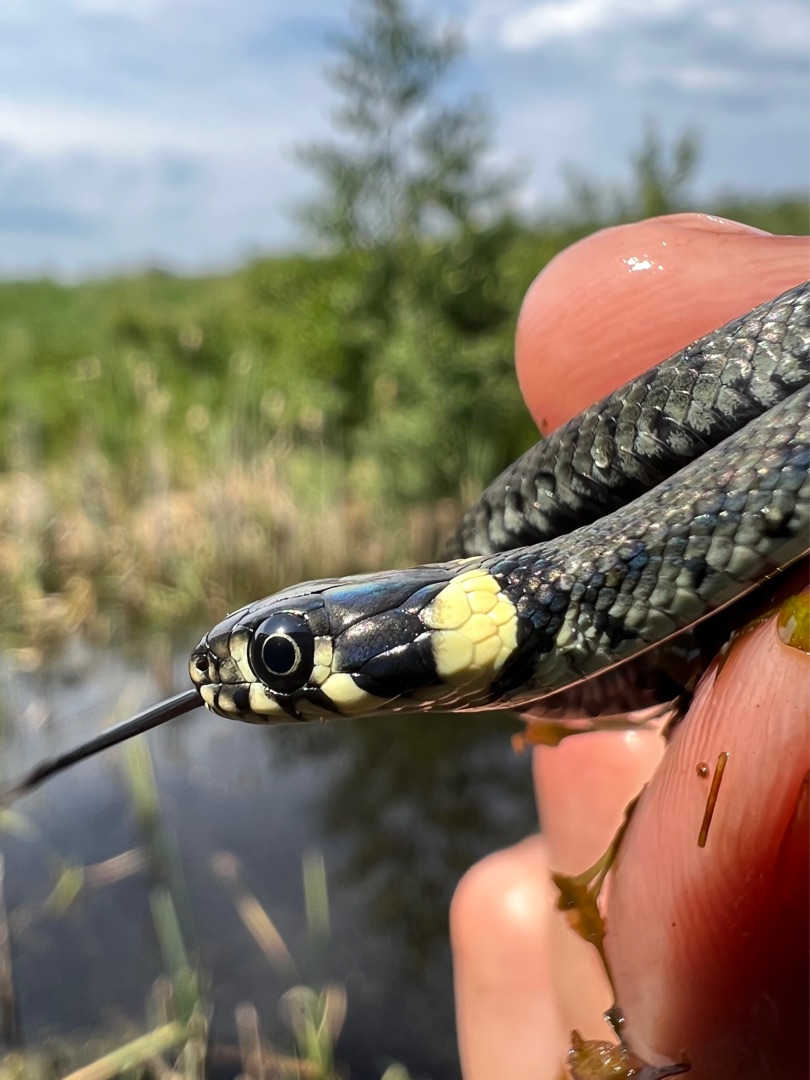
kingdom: Animalia
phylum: Chordata
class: Squamata
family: Colubridae
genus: Natrix
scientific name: Natrix natrix
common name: Snog
